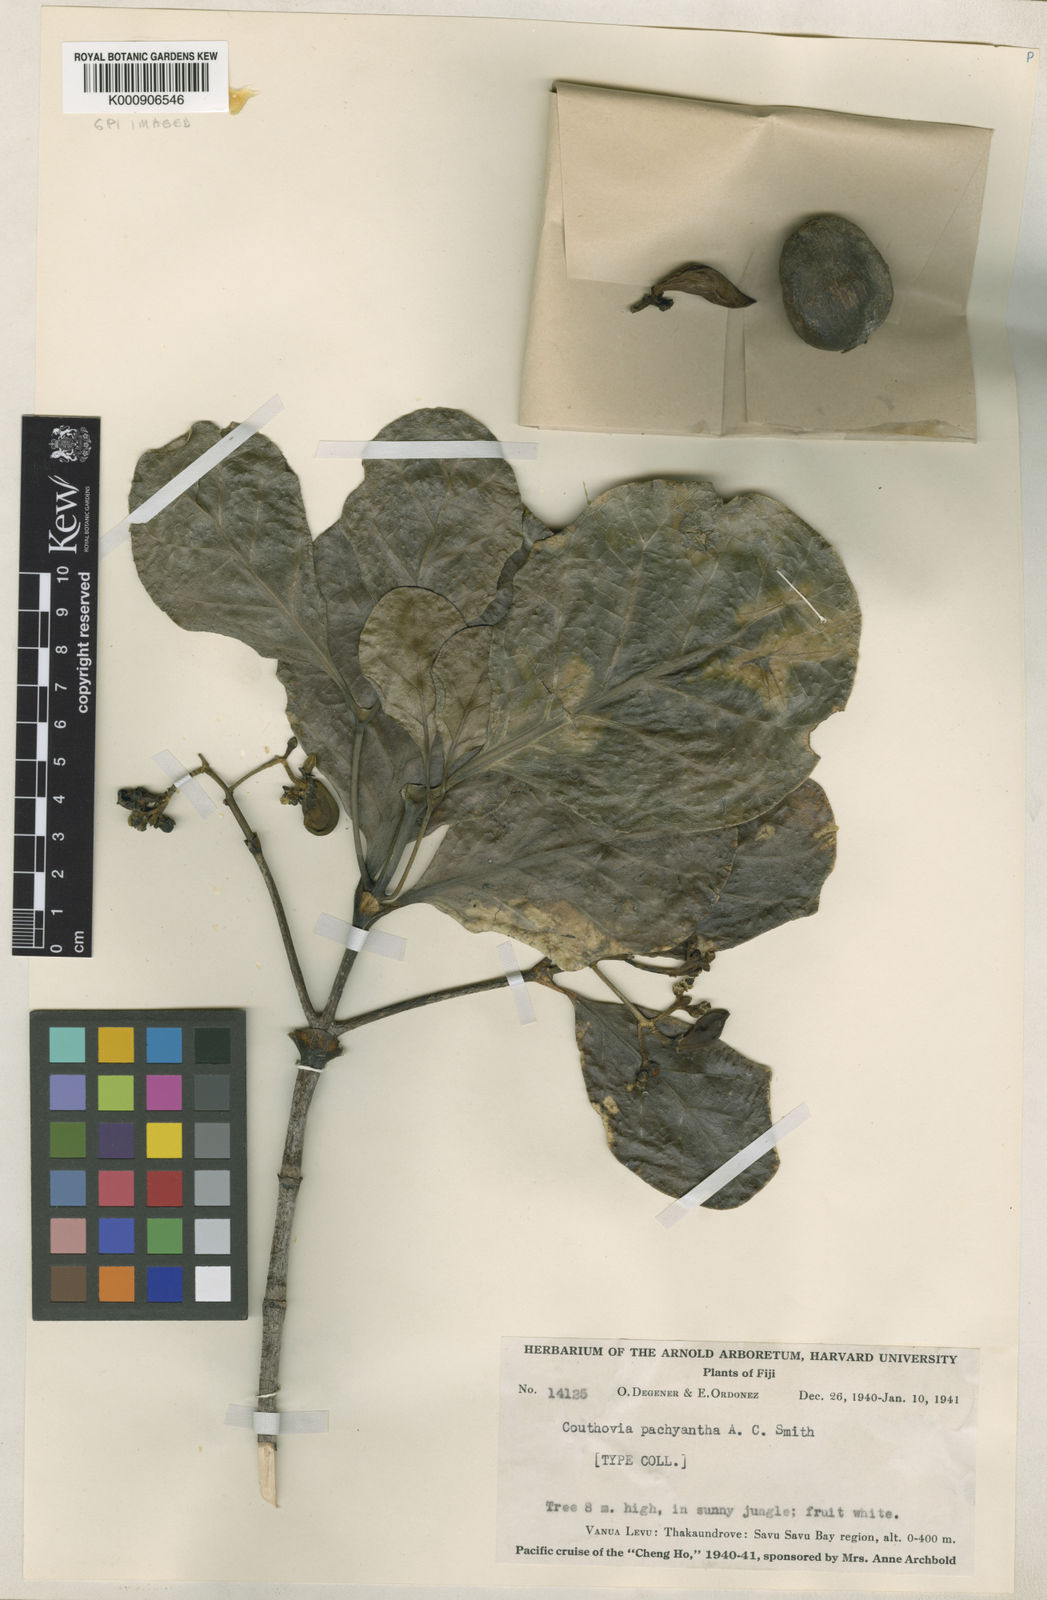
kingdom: Plantae
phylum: Tracheophyta
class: Magnoliopsida
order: Gentianales
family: Loganiaceae
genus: Neuburgia
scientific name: Neuburgia macrocarpa
